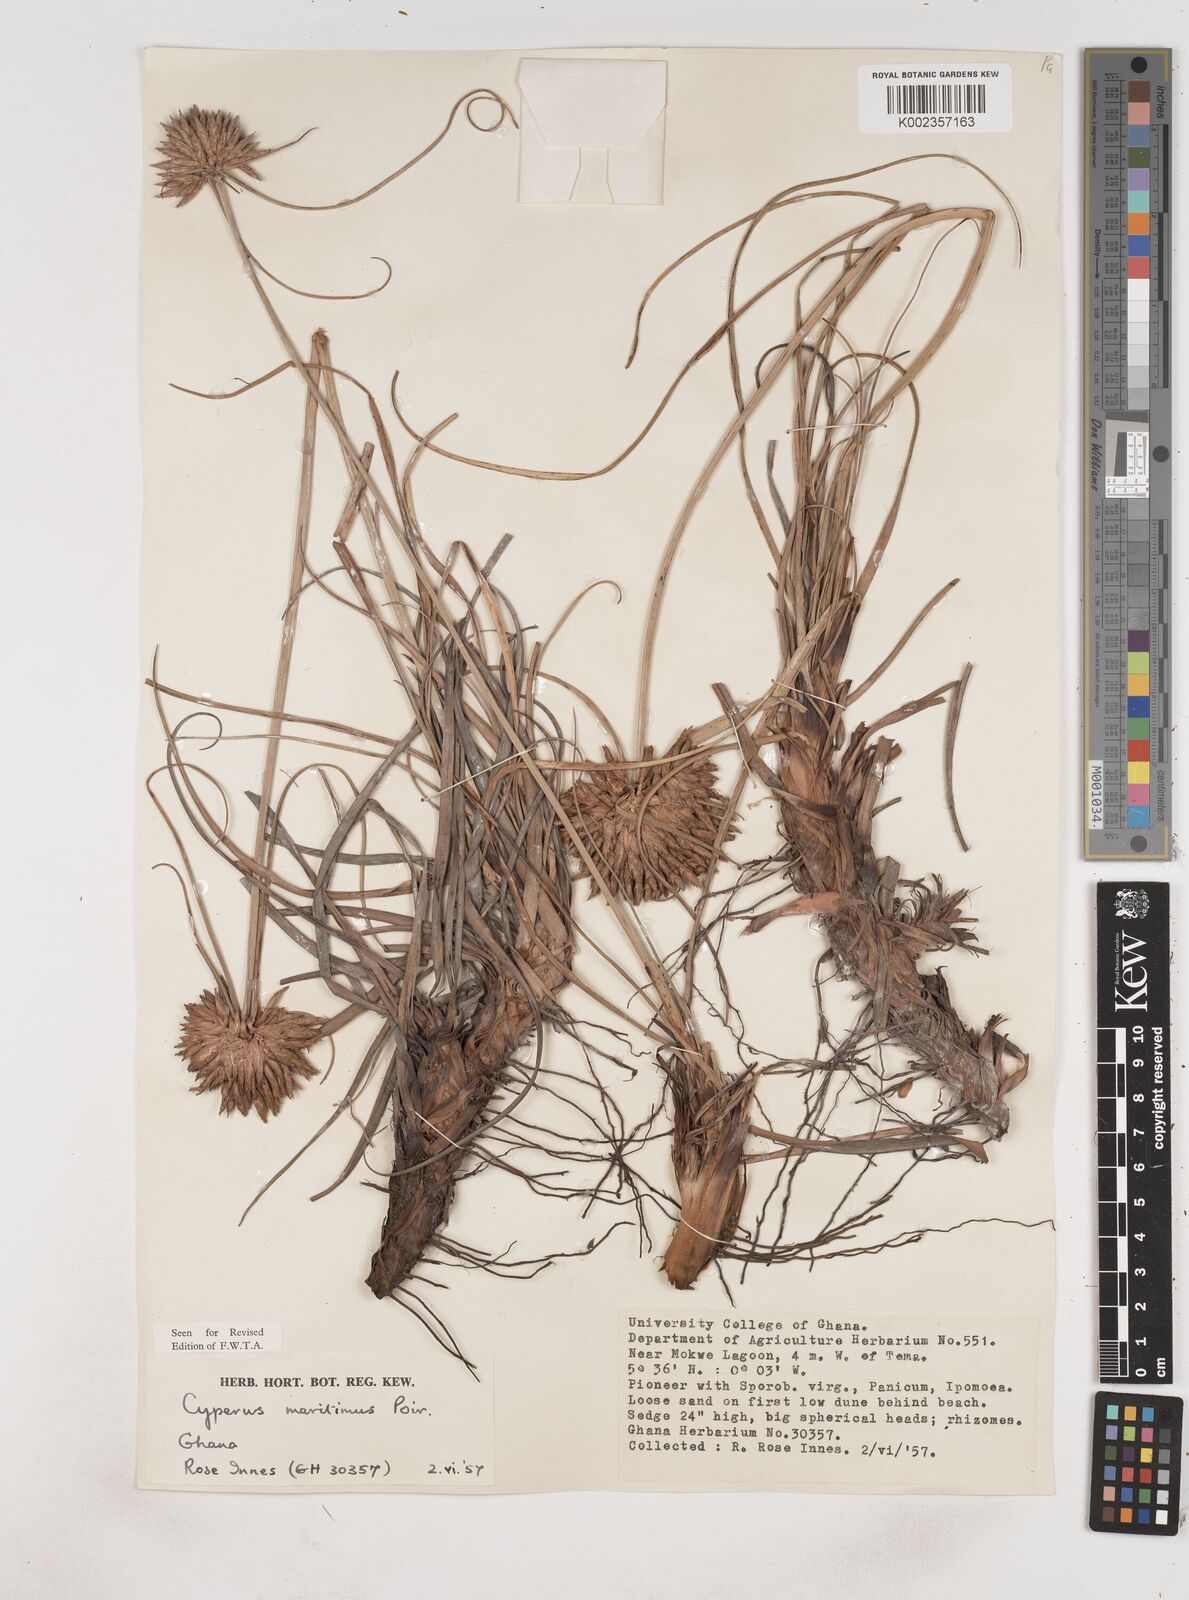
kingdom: Plantae
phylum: Tracheophyta
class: Liliopsida
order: Poales
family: Cyperaceae
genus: Cyperus
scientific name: Cyperus crassipes
